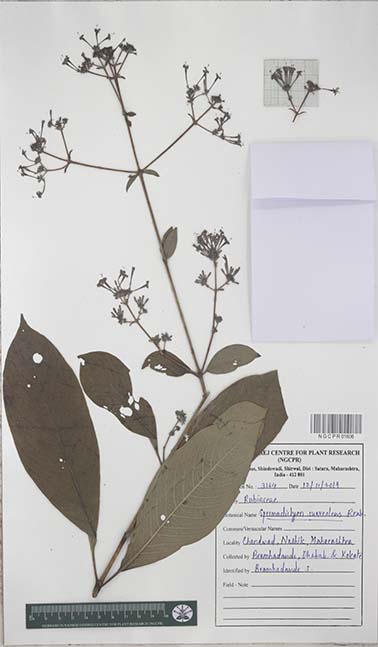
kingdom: Plantae
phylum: Tracheophyta
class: Magnoliopsida
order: Gentianales
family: Rubiaceae
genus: Spermadictyon
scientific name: Spermadictyon suaveolens
